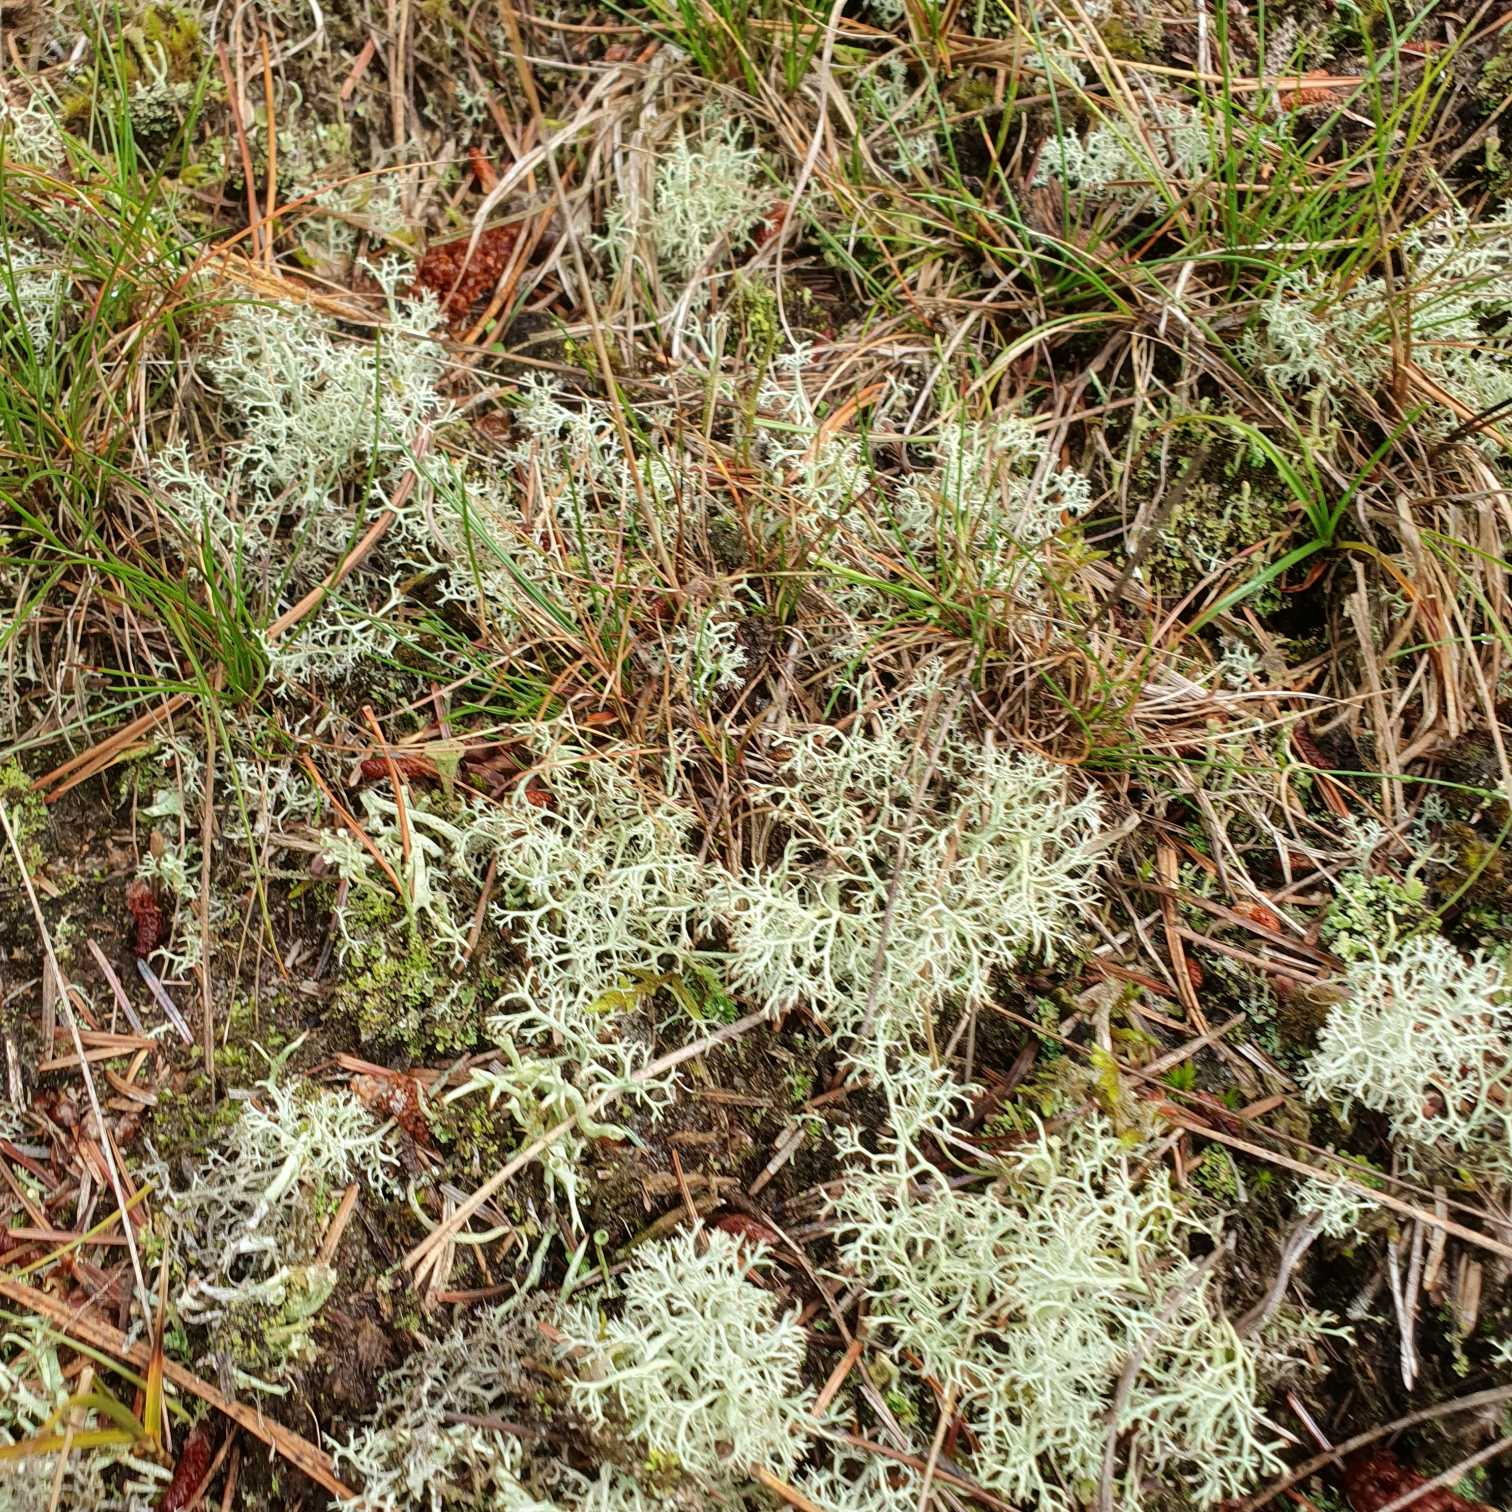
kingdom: Fungi
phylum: Ascomycota
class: Lecanoromycetes
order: Lecanorales
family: Cladoniaceae
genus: Cladonia
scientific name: Cladonia portentosa
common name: Hede-rensdyrlav
